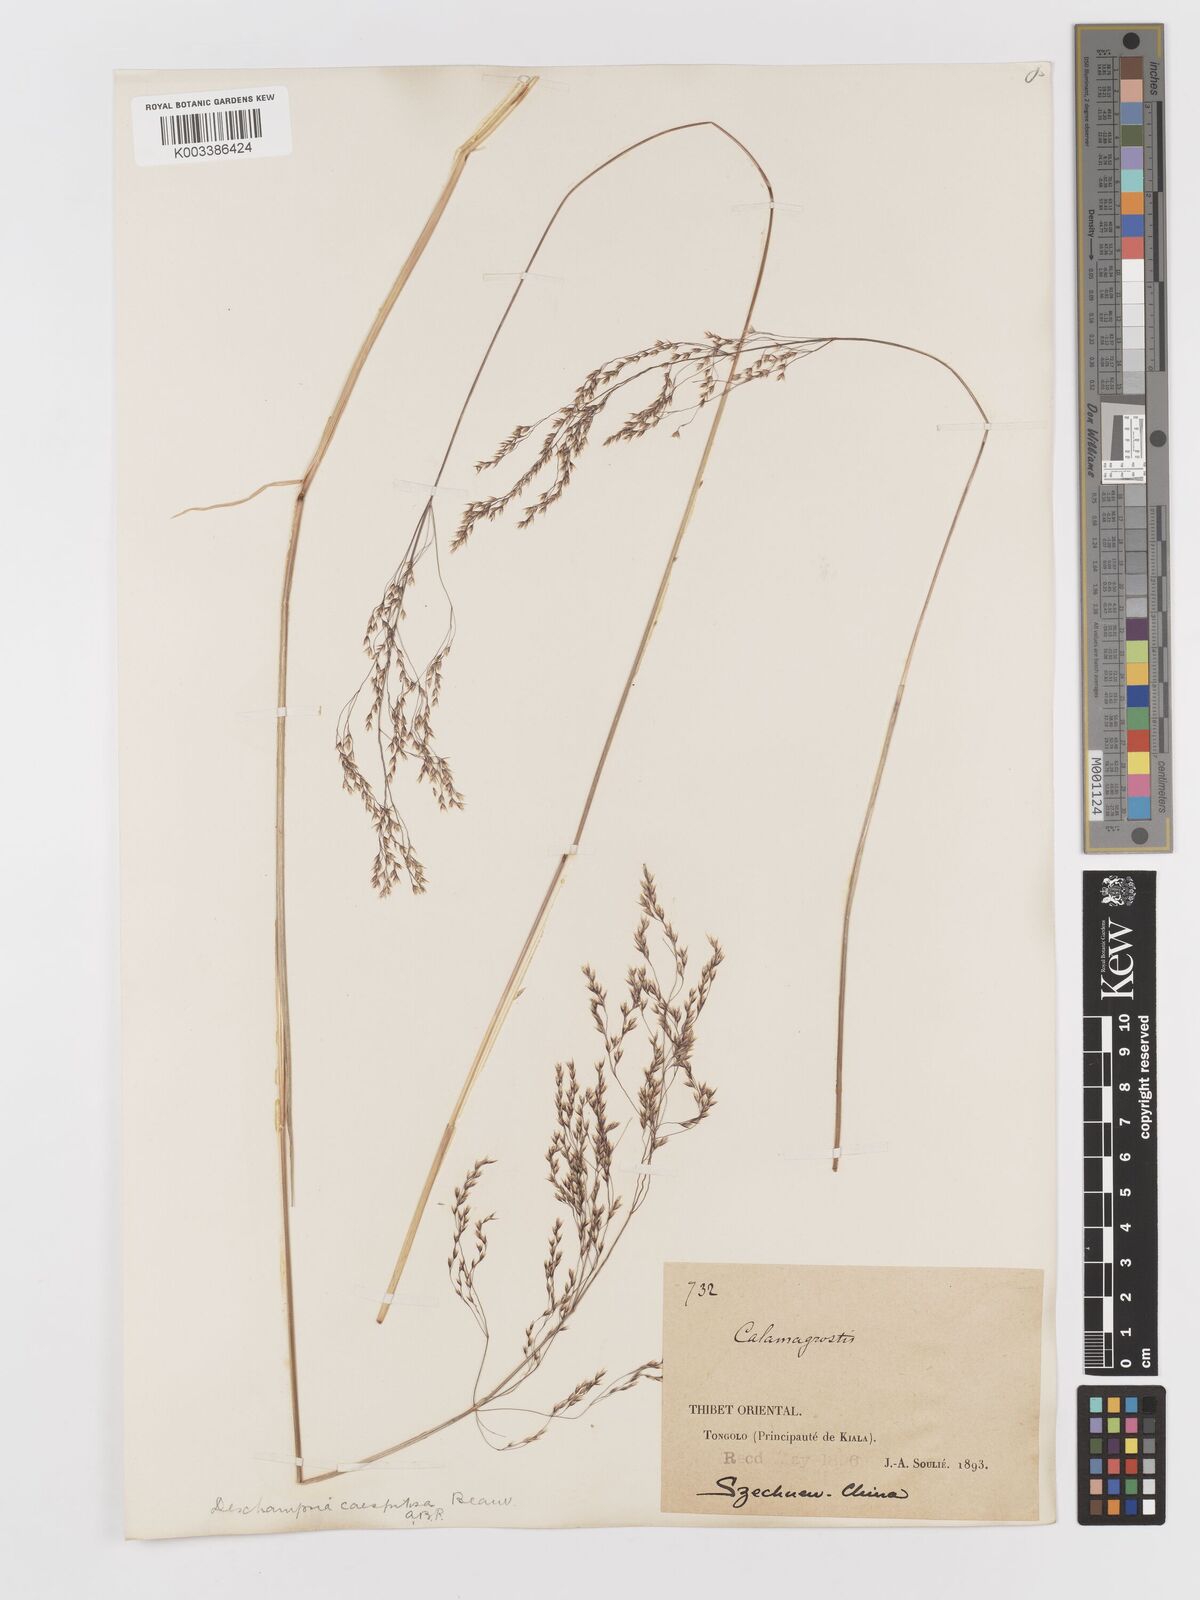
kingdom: Plantae
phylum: Tracheophyta
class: Liliopsida
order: Poales
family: Poaceae
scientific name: Poaceae
